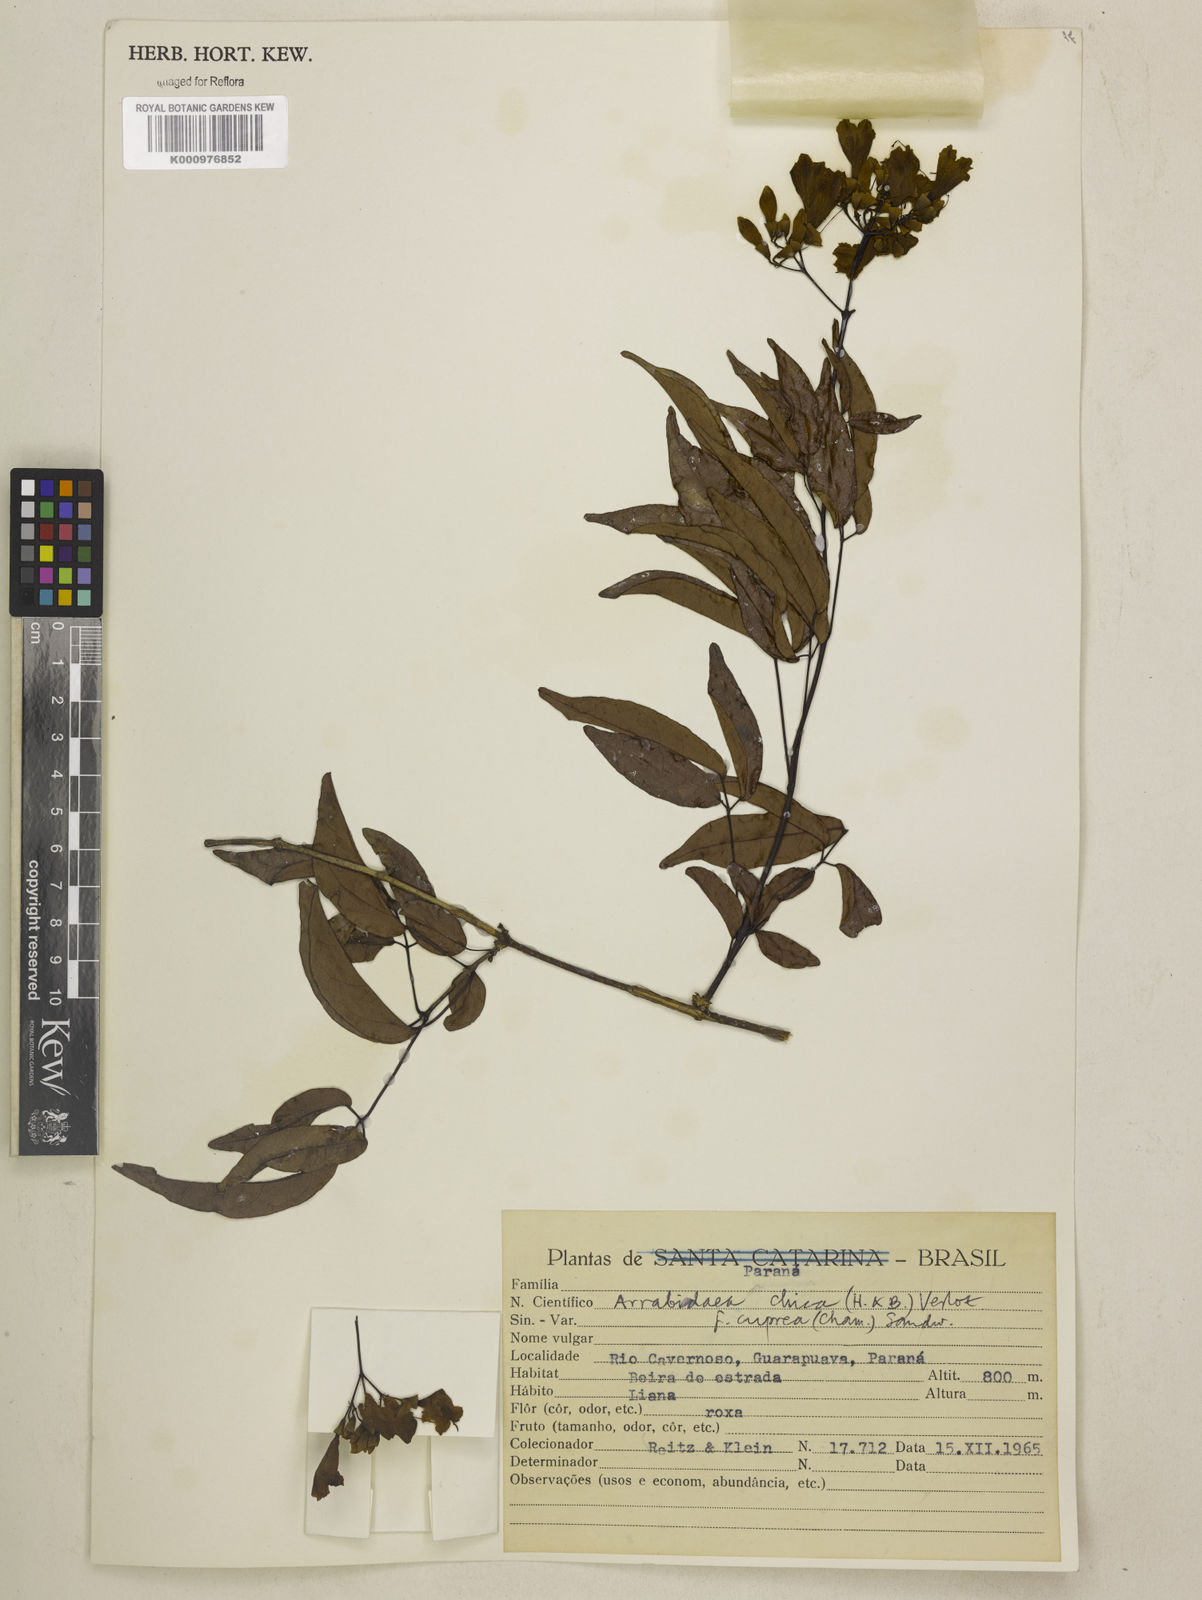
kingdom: Plantae
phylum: Tracheophyta
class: Magnoliopsida
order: Lamiales
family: Bignoniaceae
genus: Fridericia
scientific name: Fridericia chica
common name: Cricketvine
